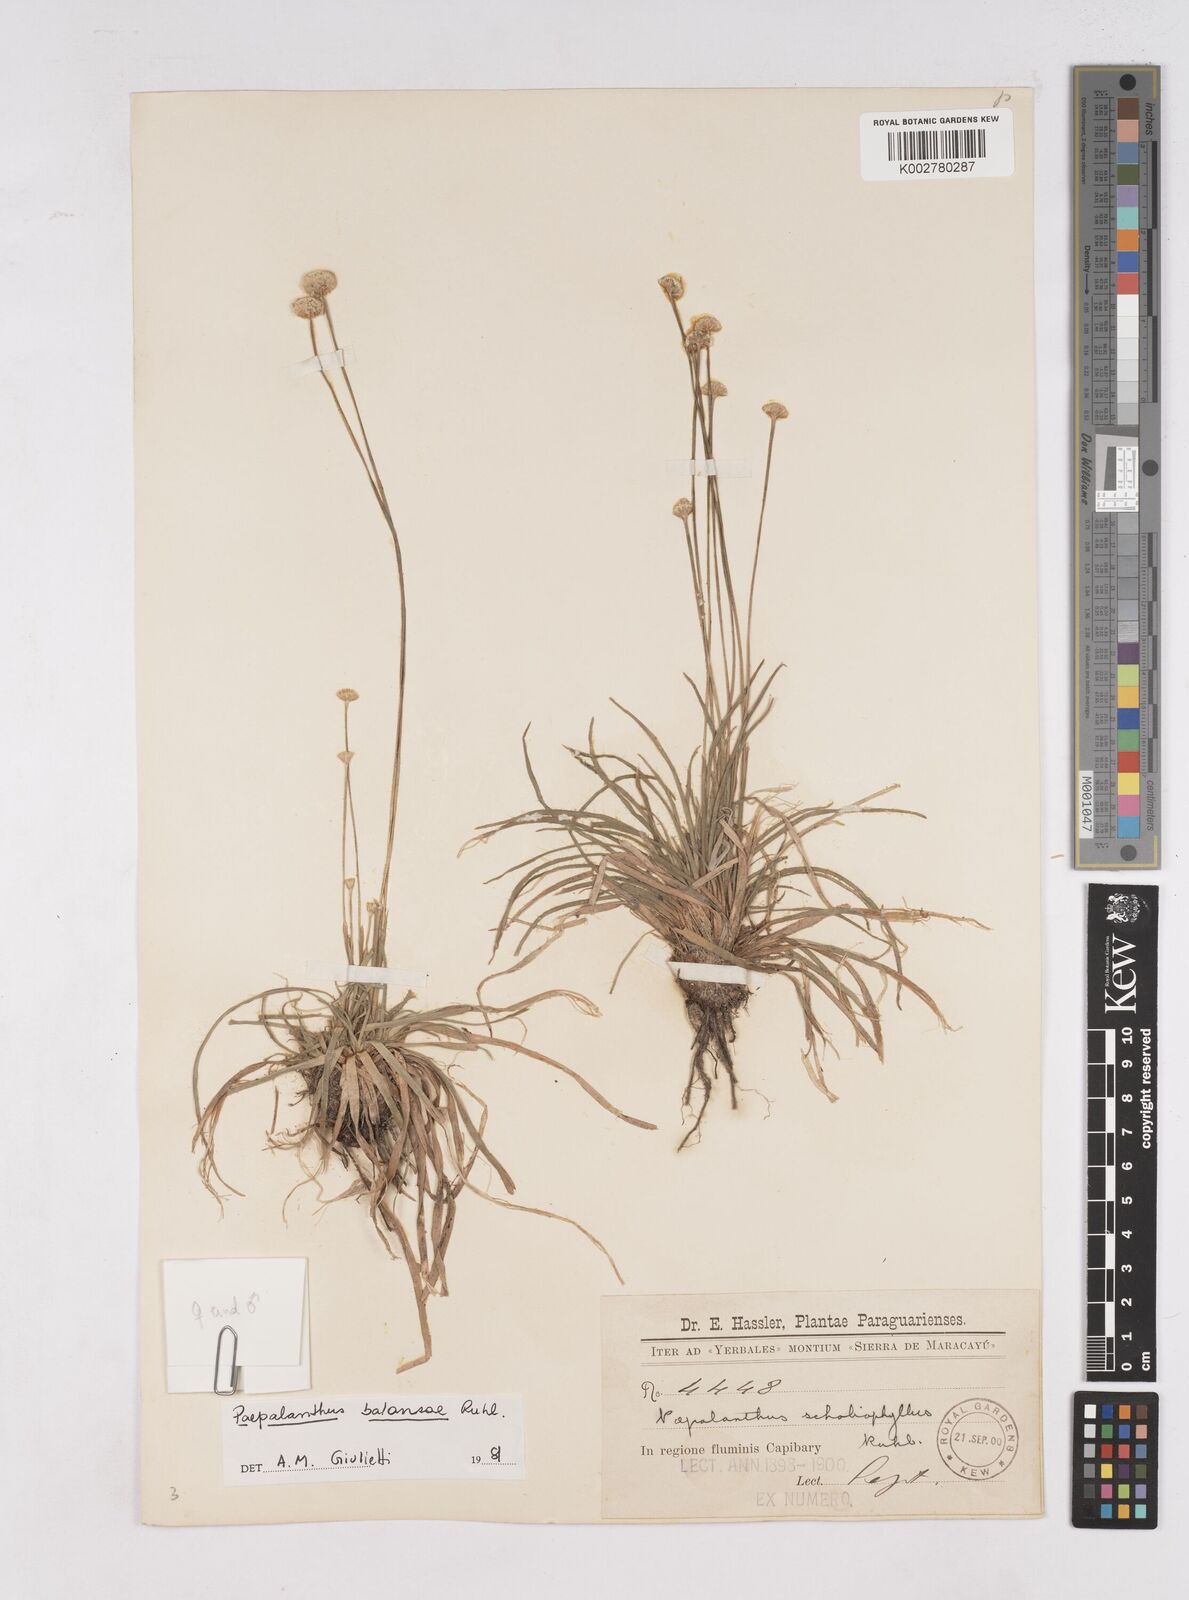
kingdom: Plantae
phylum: Tracheophyta
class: Liliopsida
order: Poales
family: Eriocaulaceae
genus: Paepalanthus
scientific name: Paepalanthus balansae
